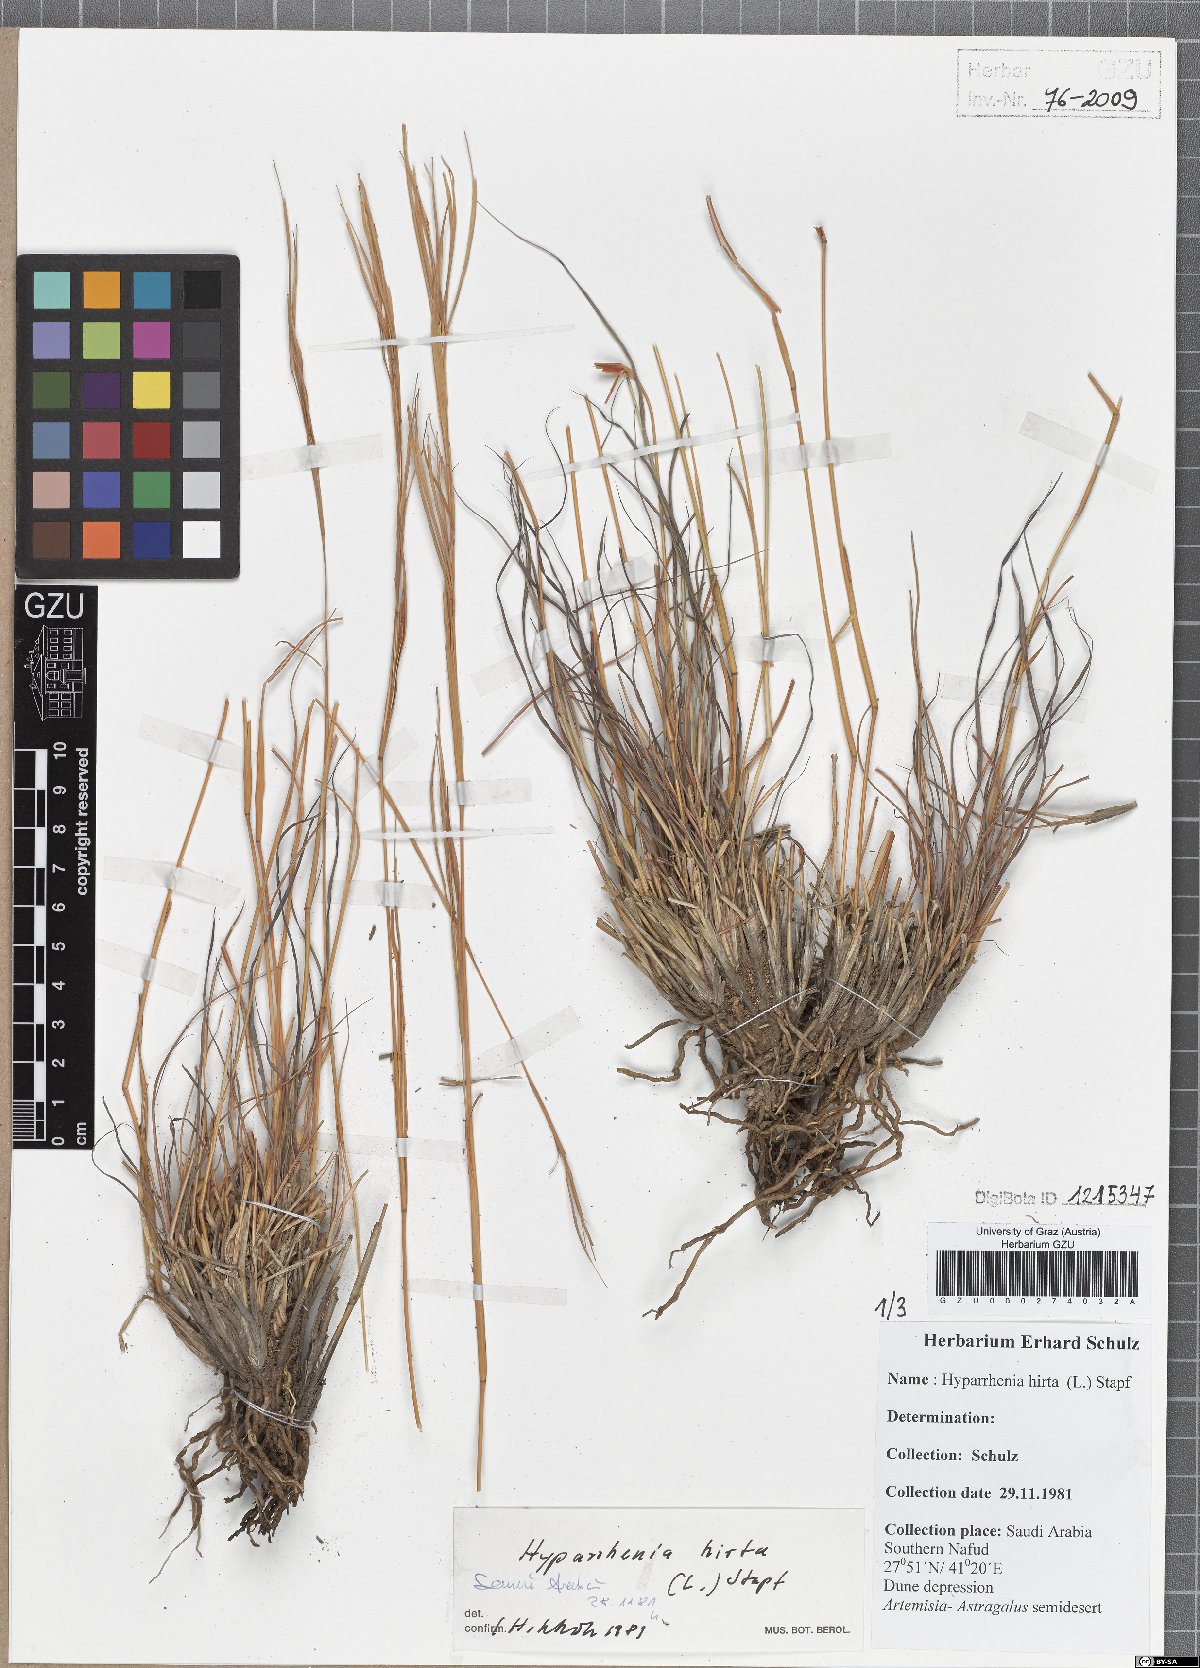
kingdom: Plantae
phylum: Tracheophyta
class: Liliopsida
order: Poales
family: Poaceae
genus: Hyparrhenia
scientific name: Hyparrhenia hirta
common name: Thatching grass
